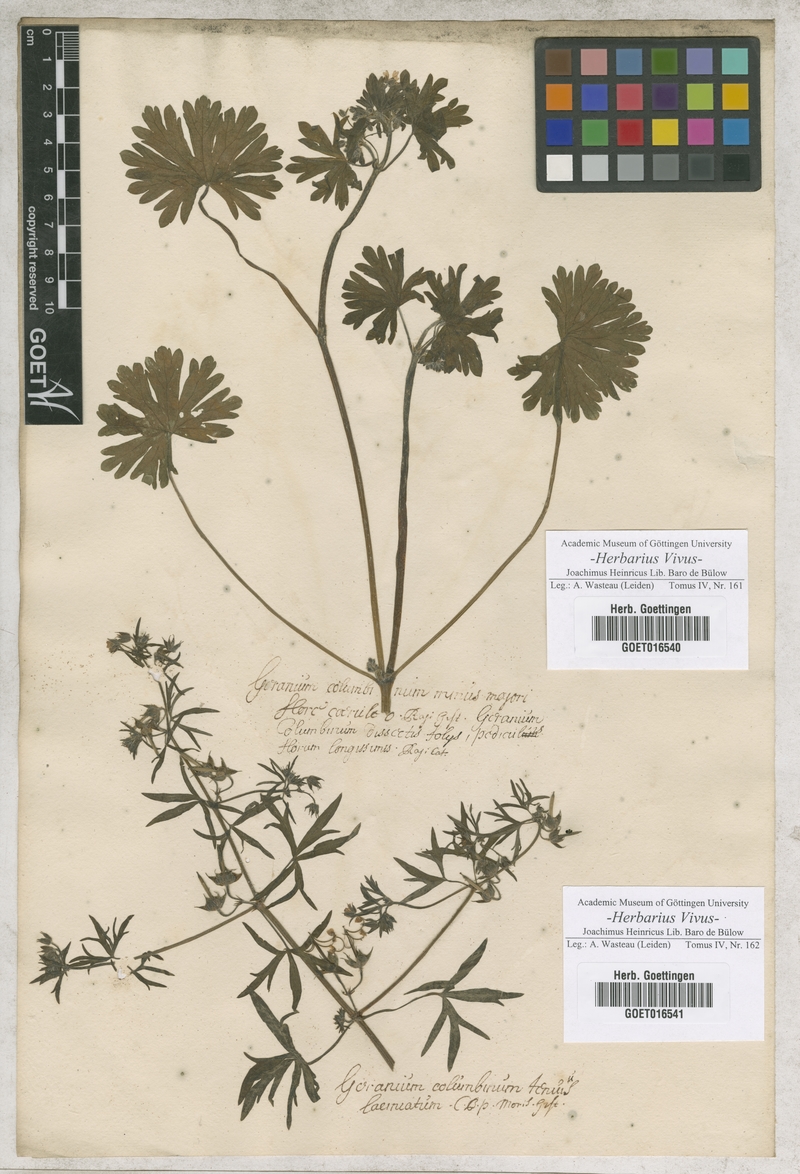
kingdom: Plantae
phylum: Tracheophyta
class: Magnoliopsida
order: Geraniales
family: Geraniaceae
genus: Geranium
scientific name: Geranium columbinum
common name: Long-stalked crane's-bill
